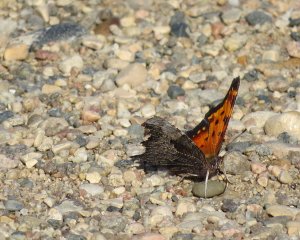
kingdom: Animalia
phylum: Arthropoda
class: Insecta
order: Lepidoptera
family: Nymphalidae
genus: Polygonia
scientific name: Polygonia interrogationis
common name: Question Mark
